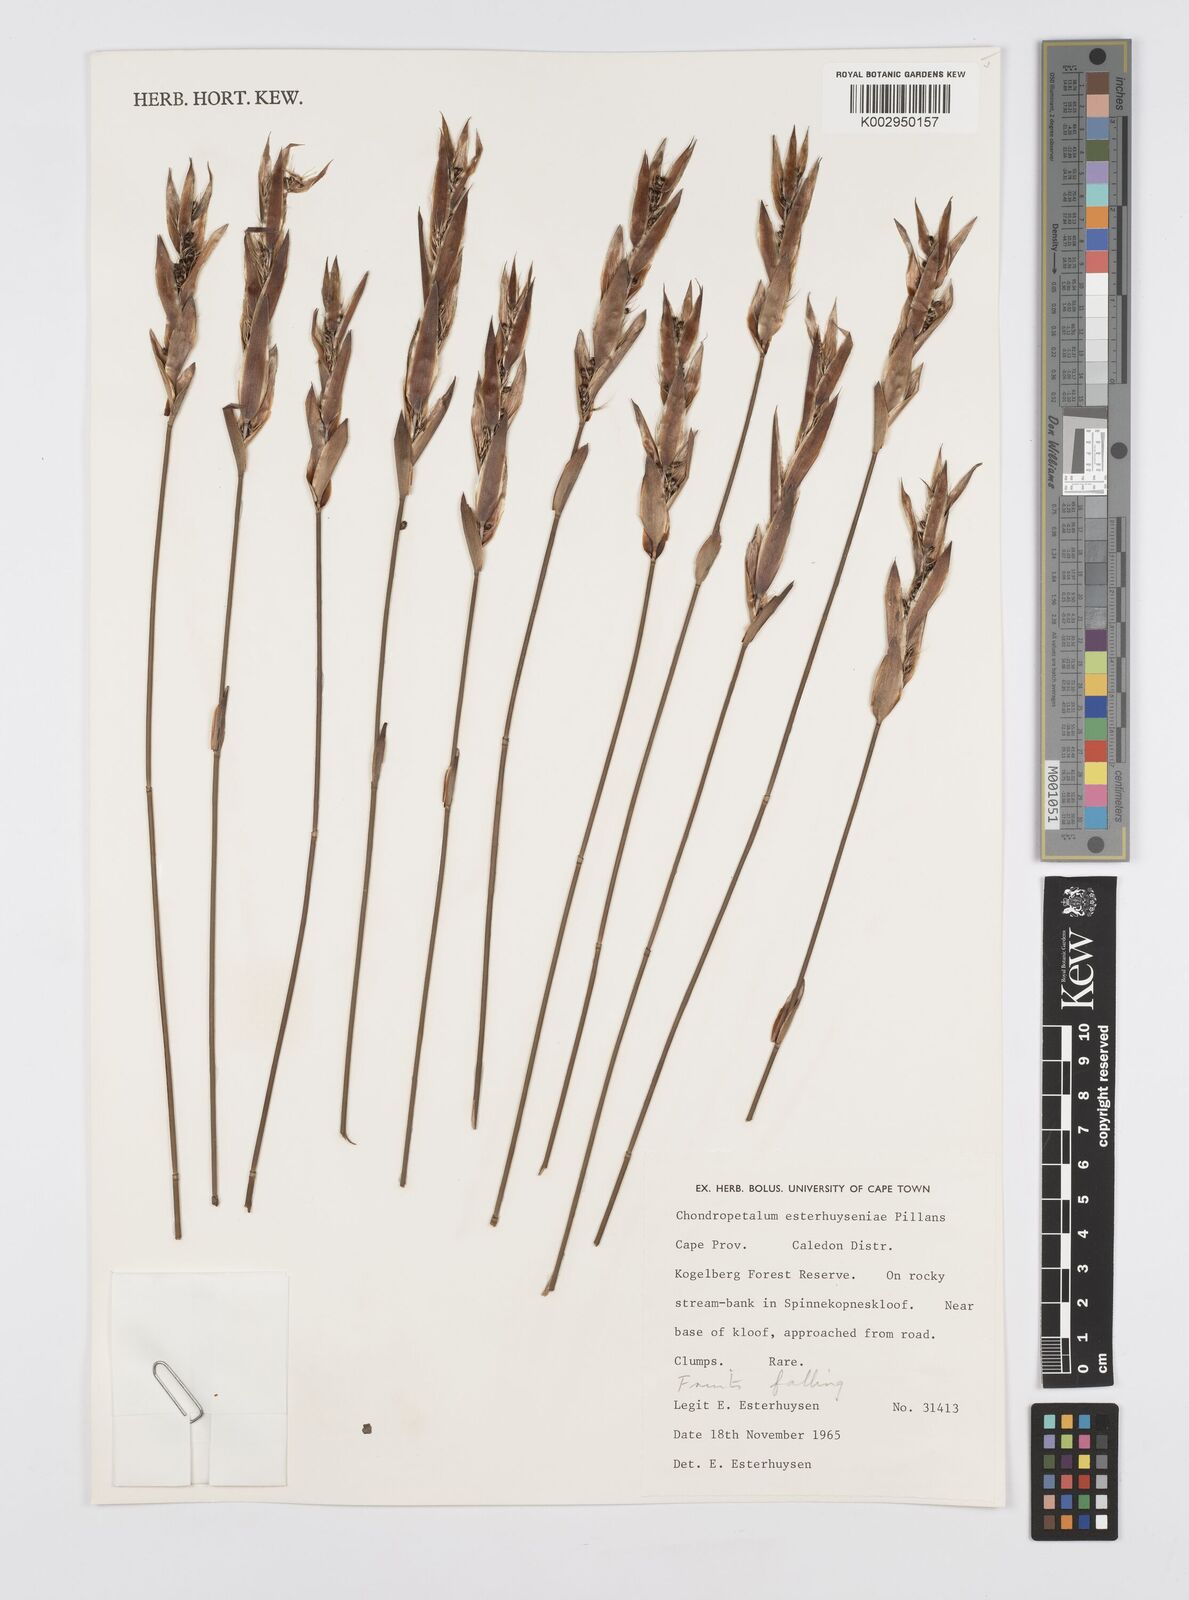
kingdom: Plantae
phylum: Tracheophyta
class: Liliopsida
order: Poales
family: Restionaceae
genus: Askidiosperma
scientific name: Askidiosperma esterhuyseniae
